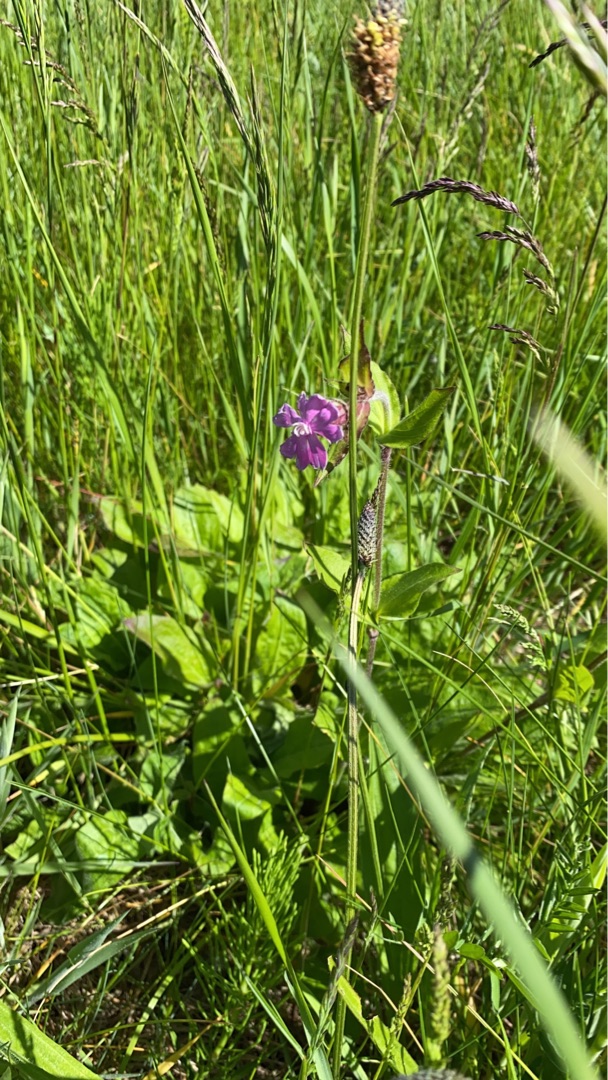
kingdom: Plantae
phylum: Tracheophyta
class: Magnoliopsida
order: Caryophyllales
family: Caryophyllaceae
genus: Silene
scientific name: Silene dioica
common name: Dagpragtstjerne
